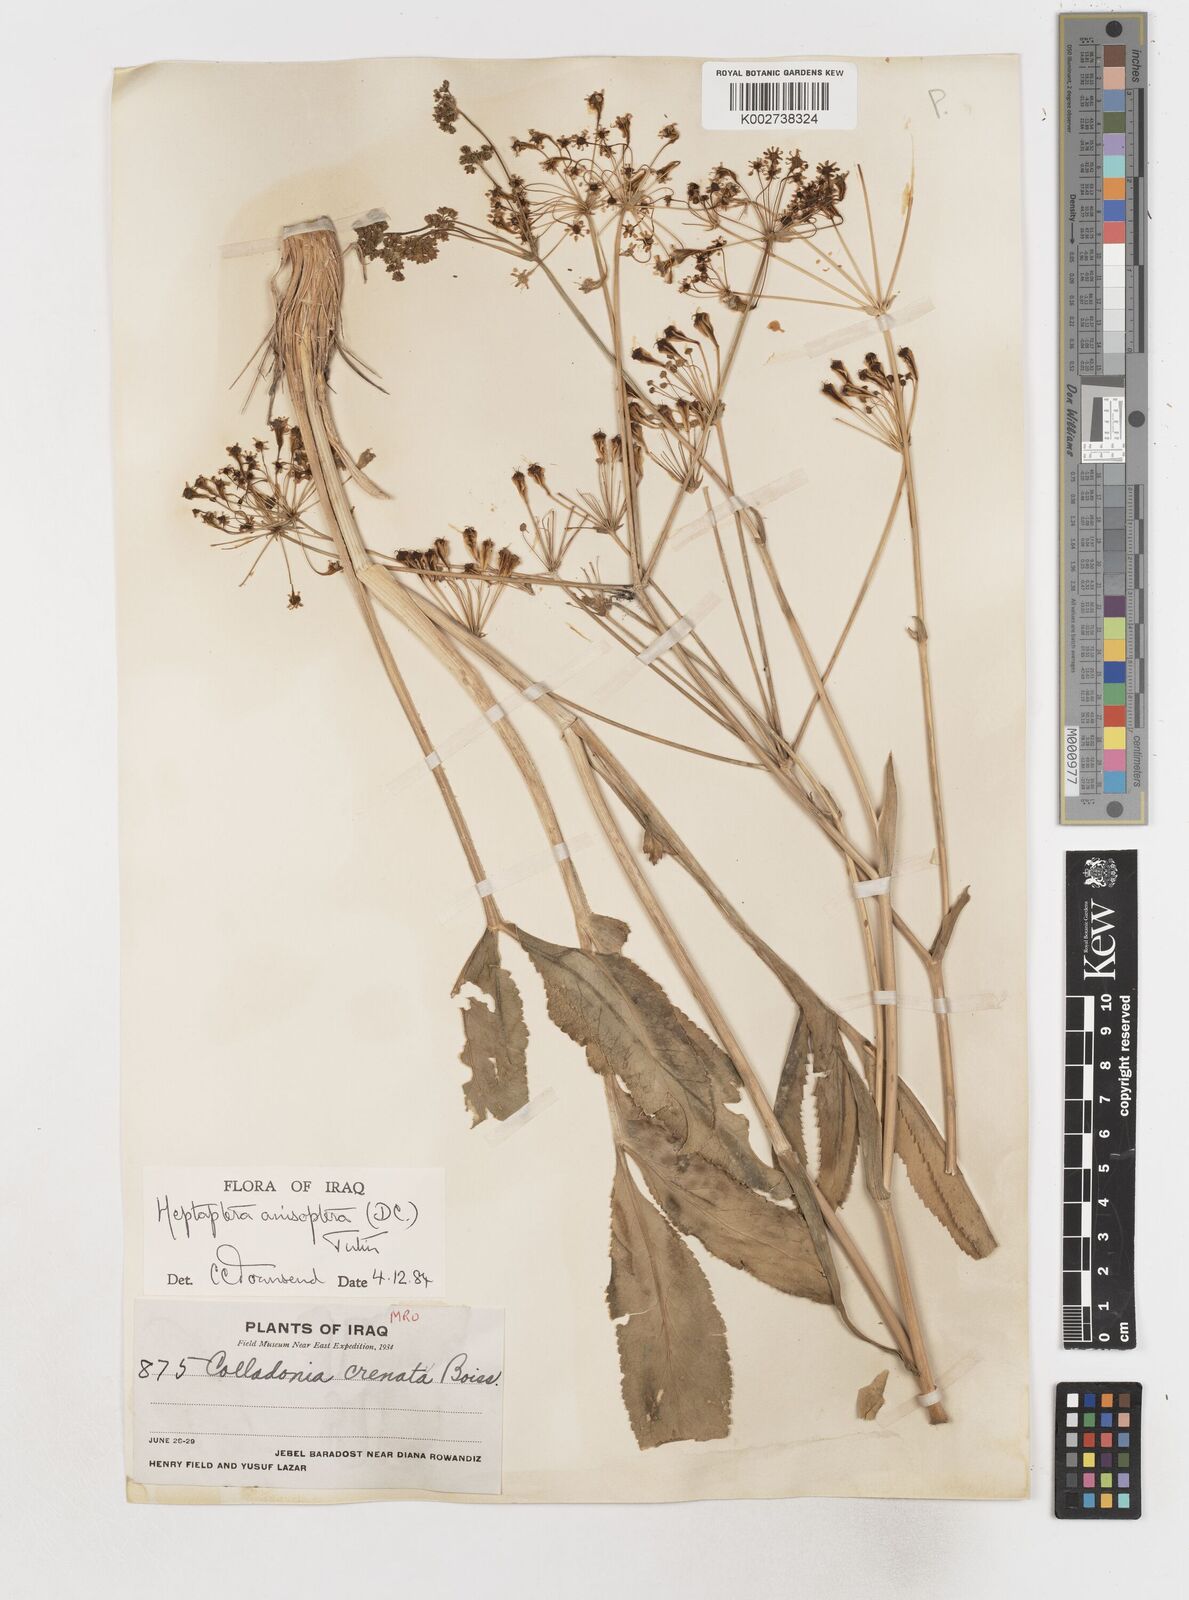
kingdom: Plantae
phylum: Tracheophyta
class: Magnoliopsida
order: Apiales
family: Apiaceae
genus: Heptaptera
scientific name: Heptaptera
